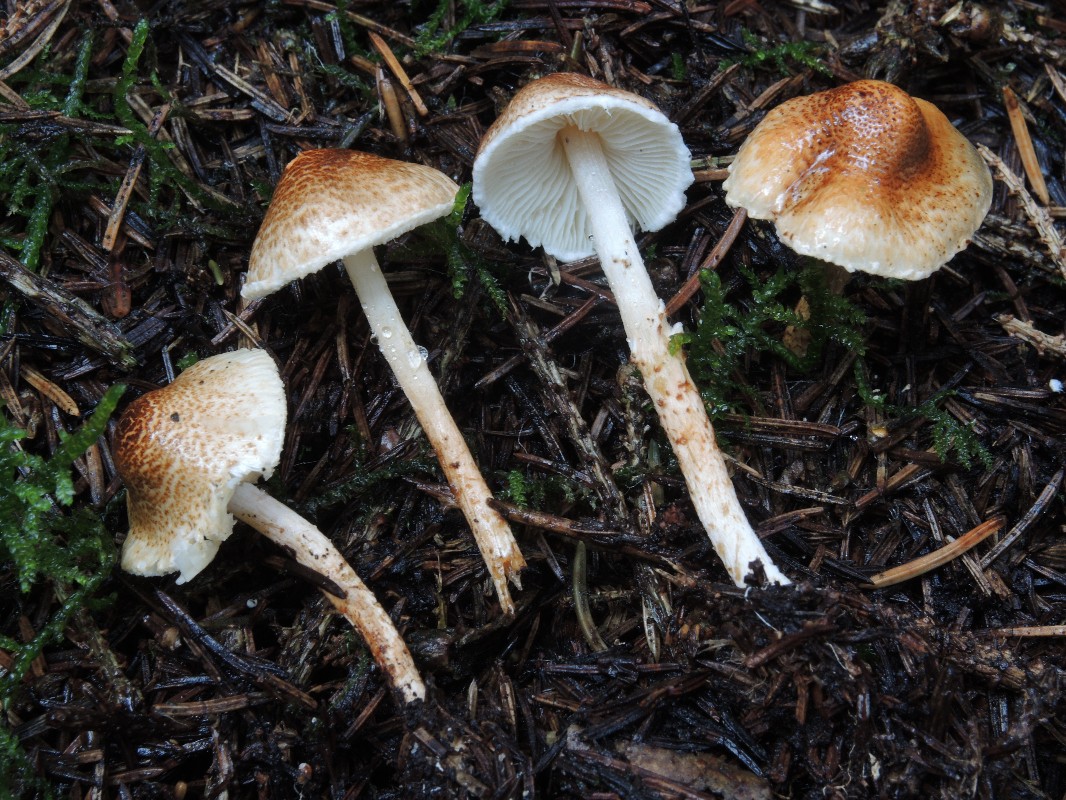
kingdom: Fungi
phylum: Basidiomycota
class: Agaricomycetes
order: Agaricales
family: Agaricaceae
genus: Lepiota
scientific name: Lepiota castanea
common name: kastaniebrun parasolhat
